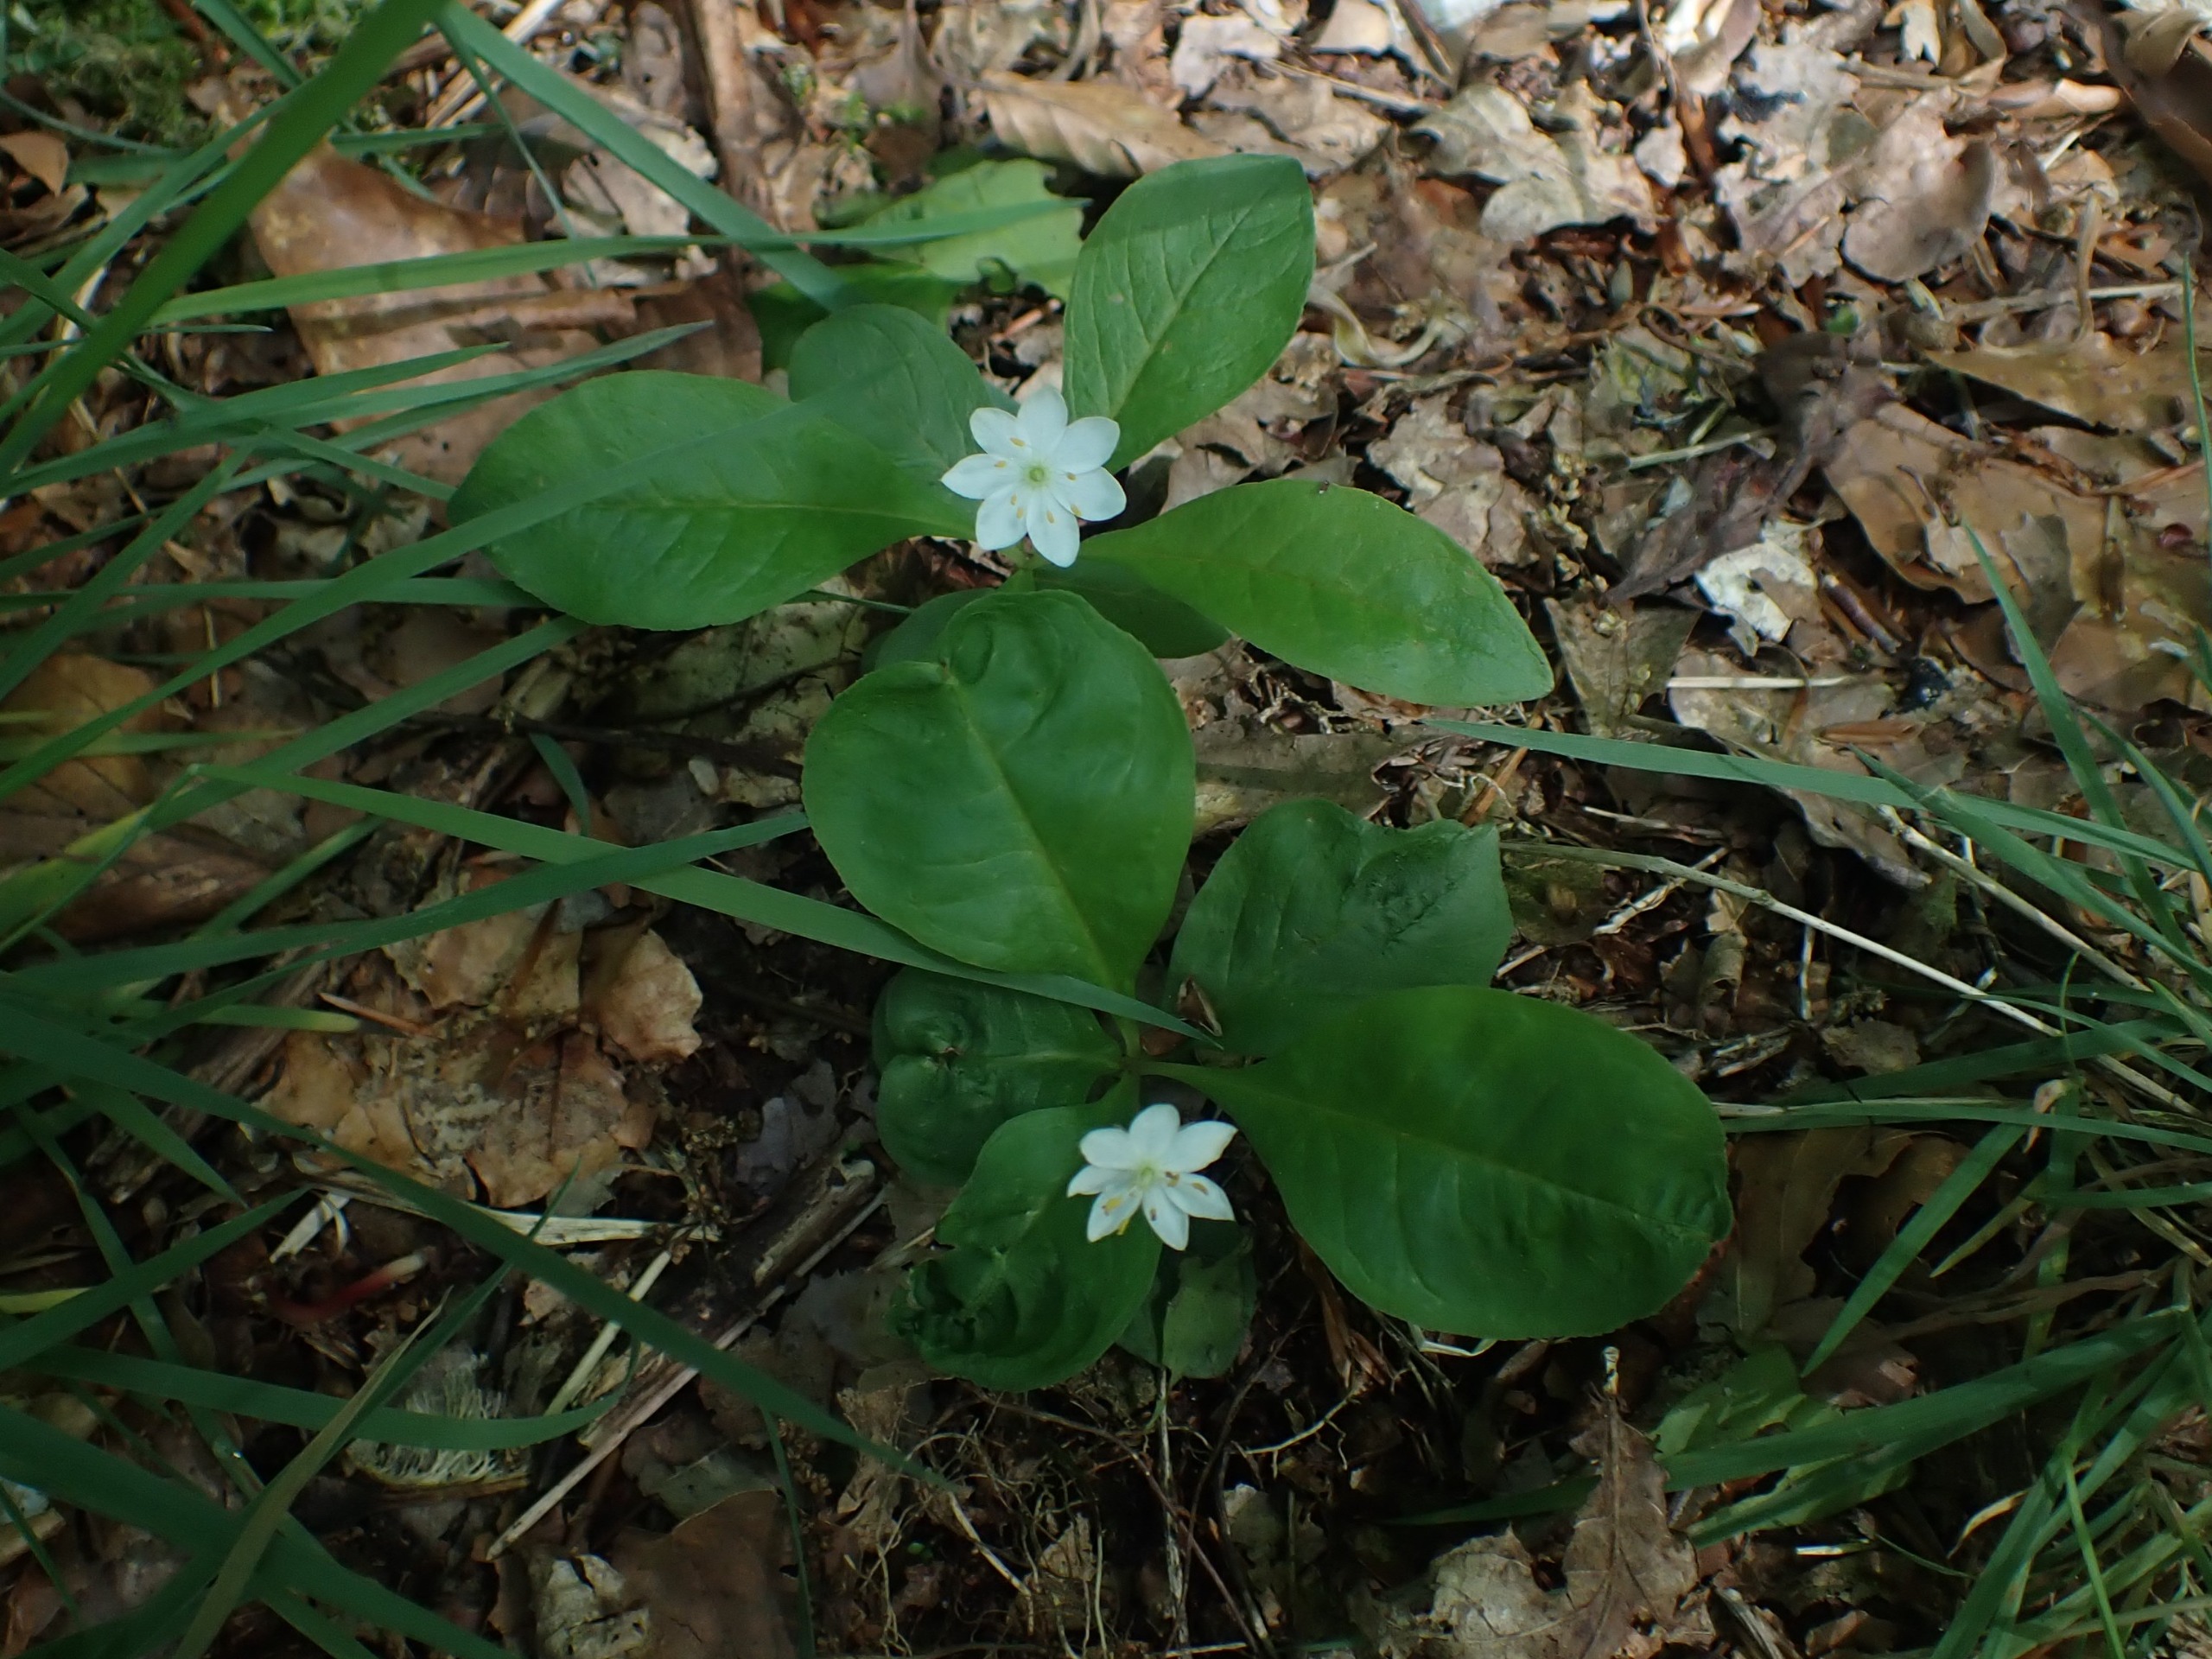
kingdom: Plantae
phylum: Tracheophyta
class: Magnoliopsida
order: Ericales
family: Primulaceae
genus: Lysimachia
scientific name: Lysimachia europaea
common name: Skovstjerne
